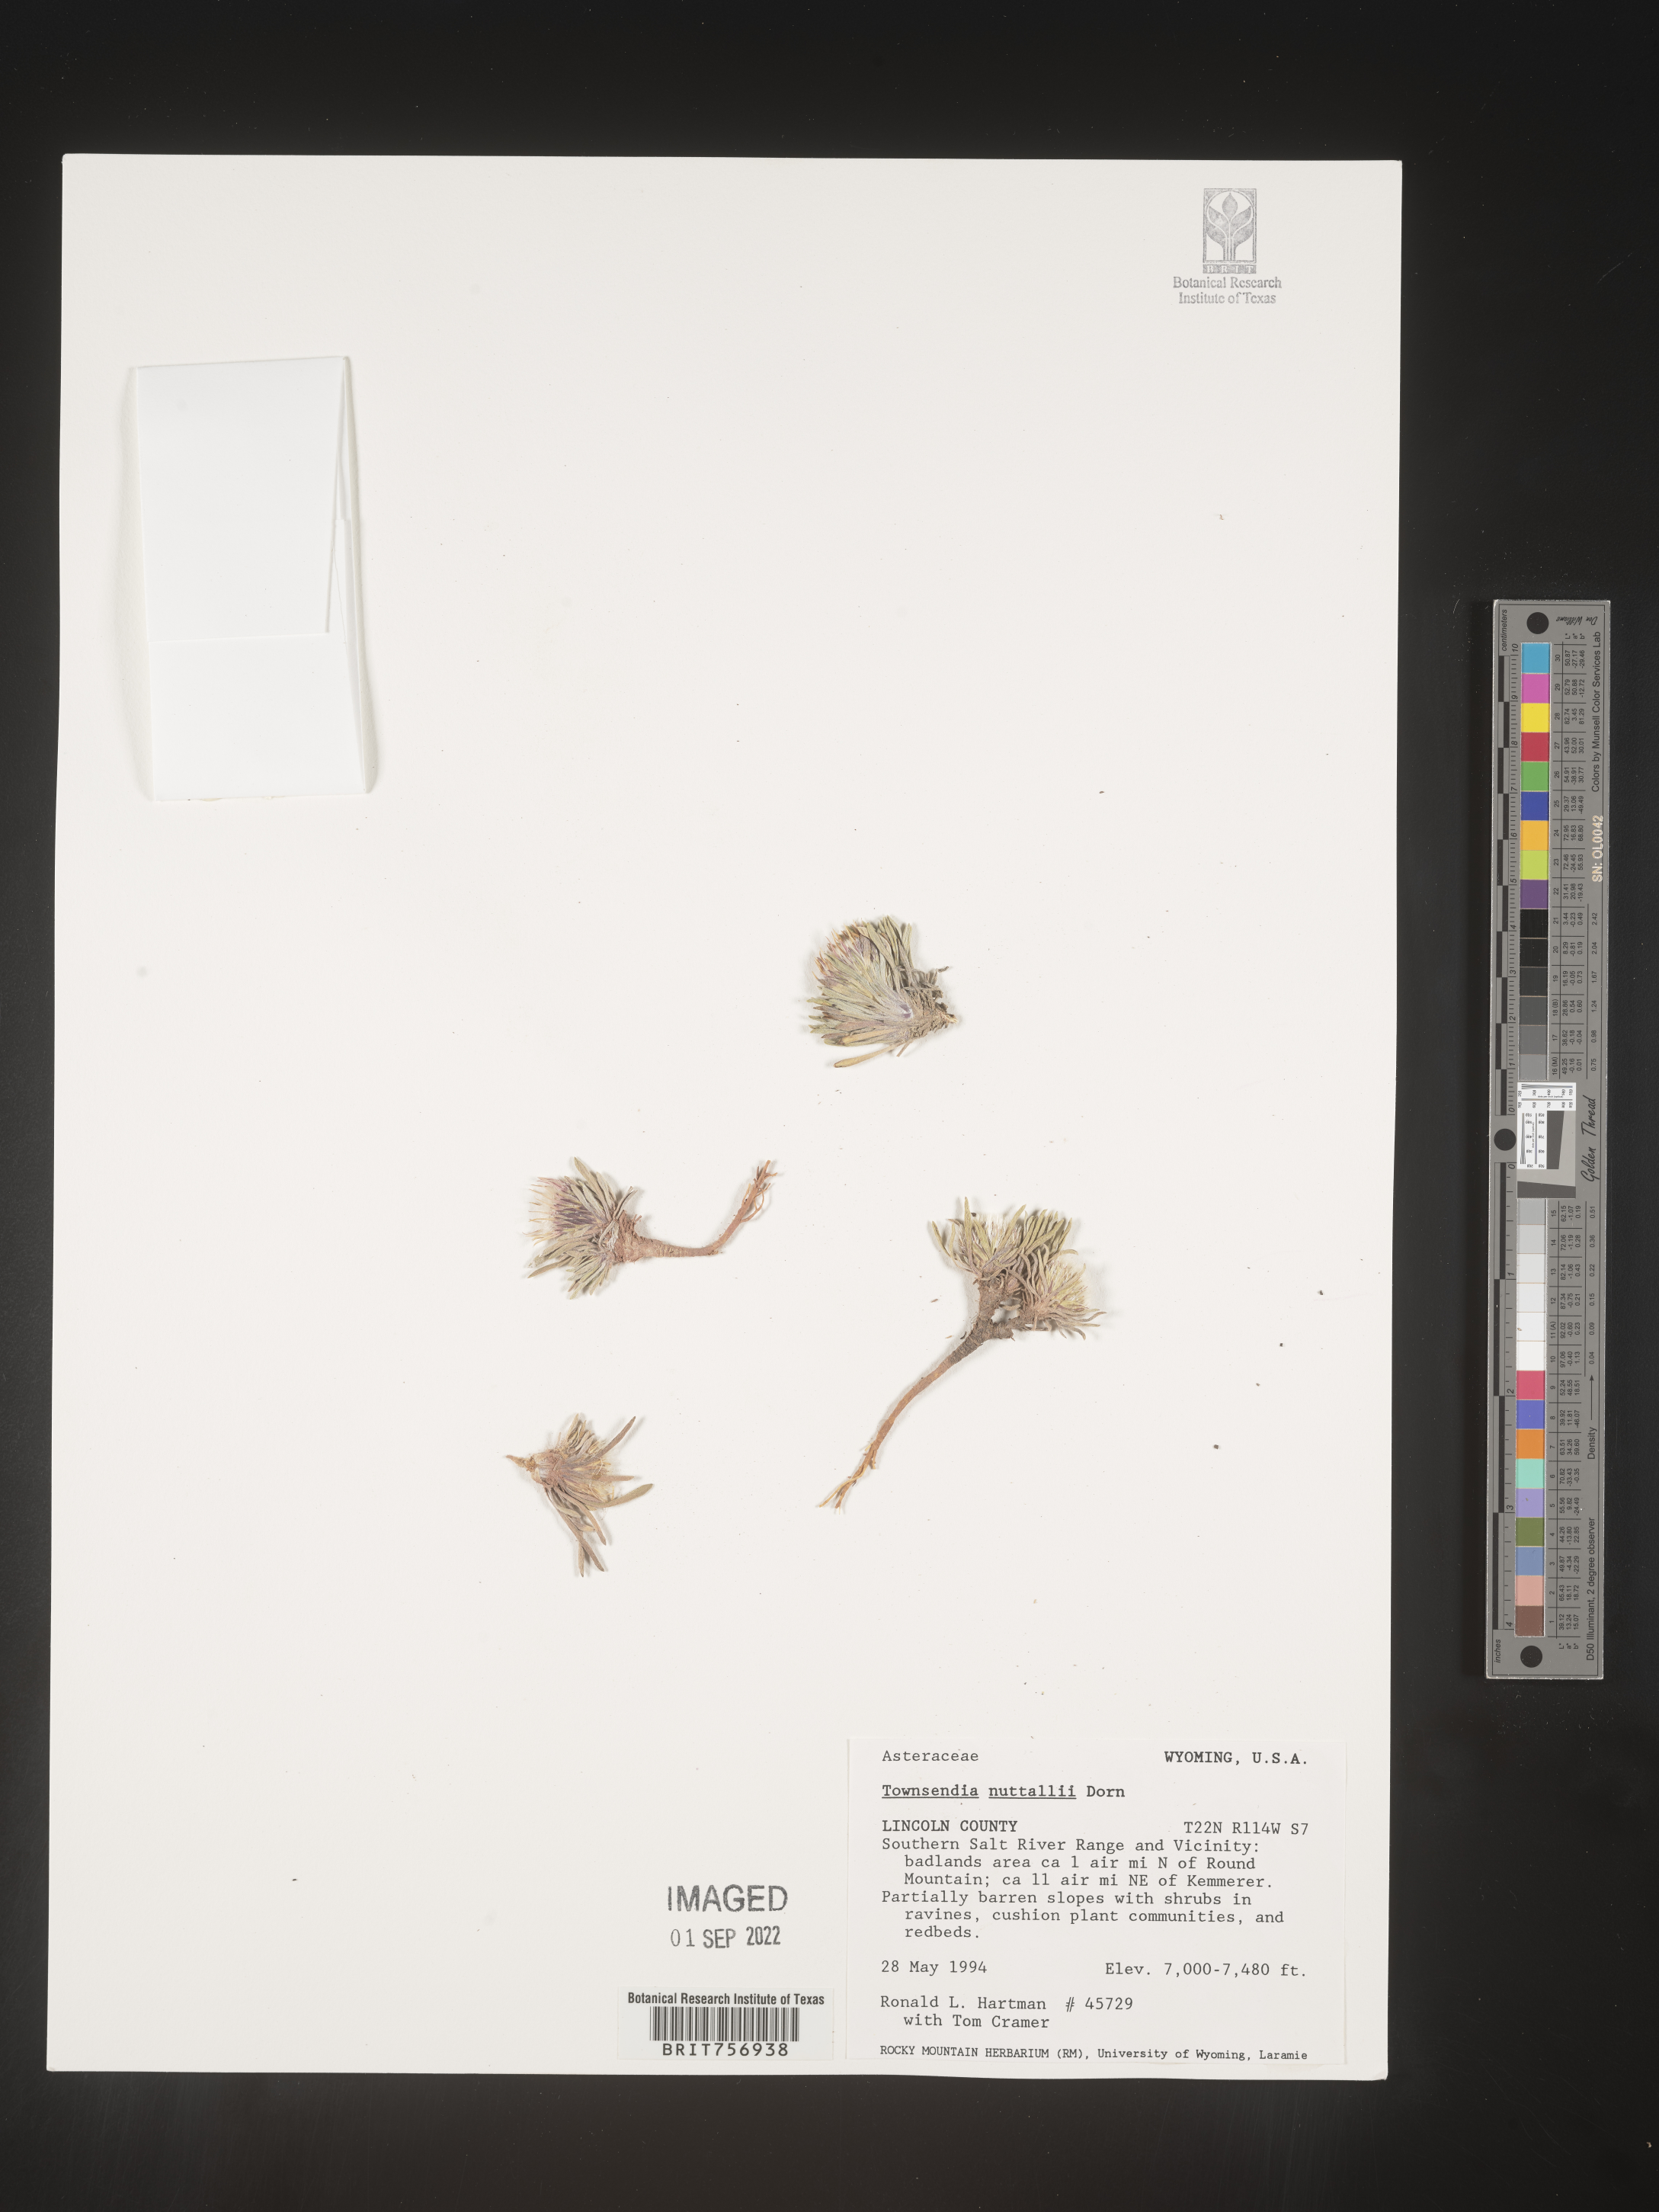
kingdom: Plantae
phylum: Tracheophyta
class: Magnoliopsida
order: Asterales
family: Asteraceae
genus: Townsendia
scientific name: Townsendia hookeri
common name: Hooker's townsend daisy
